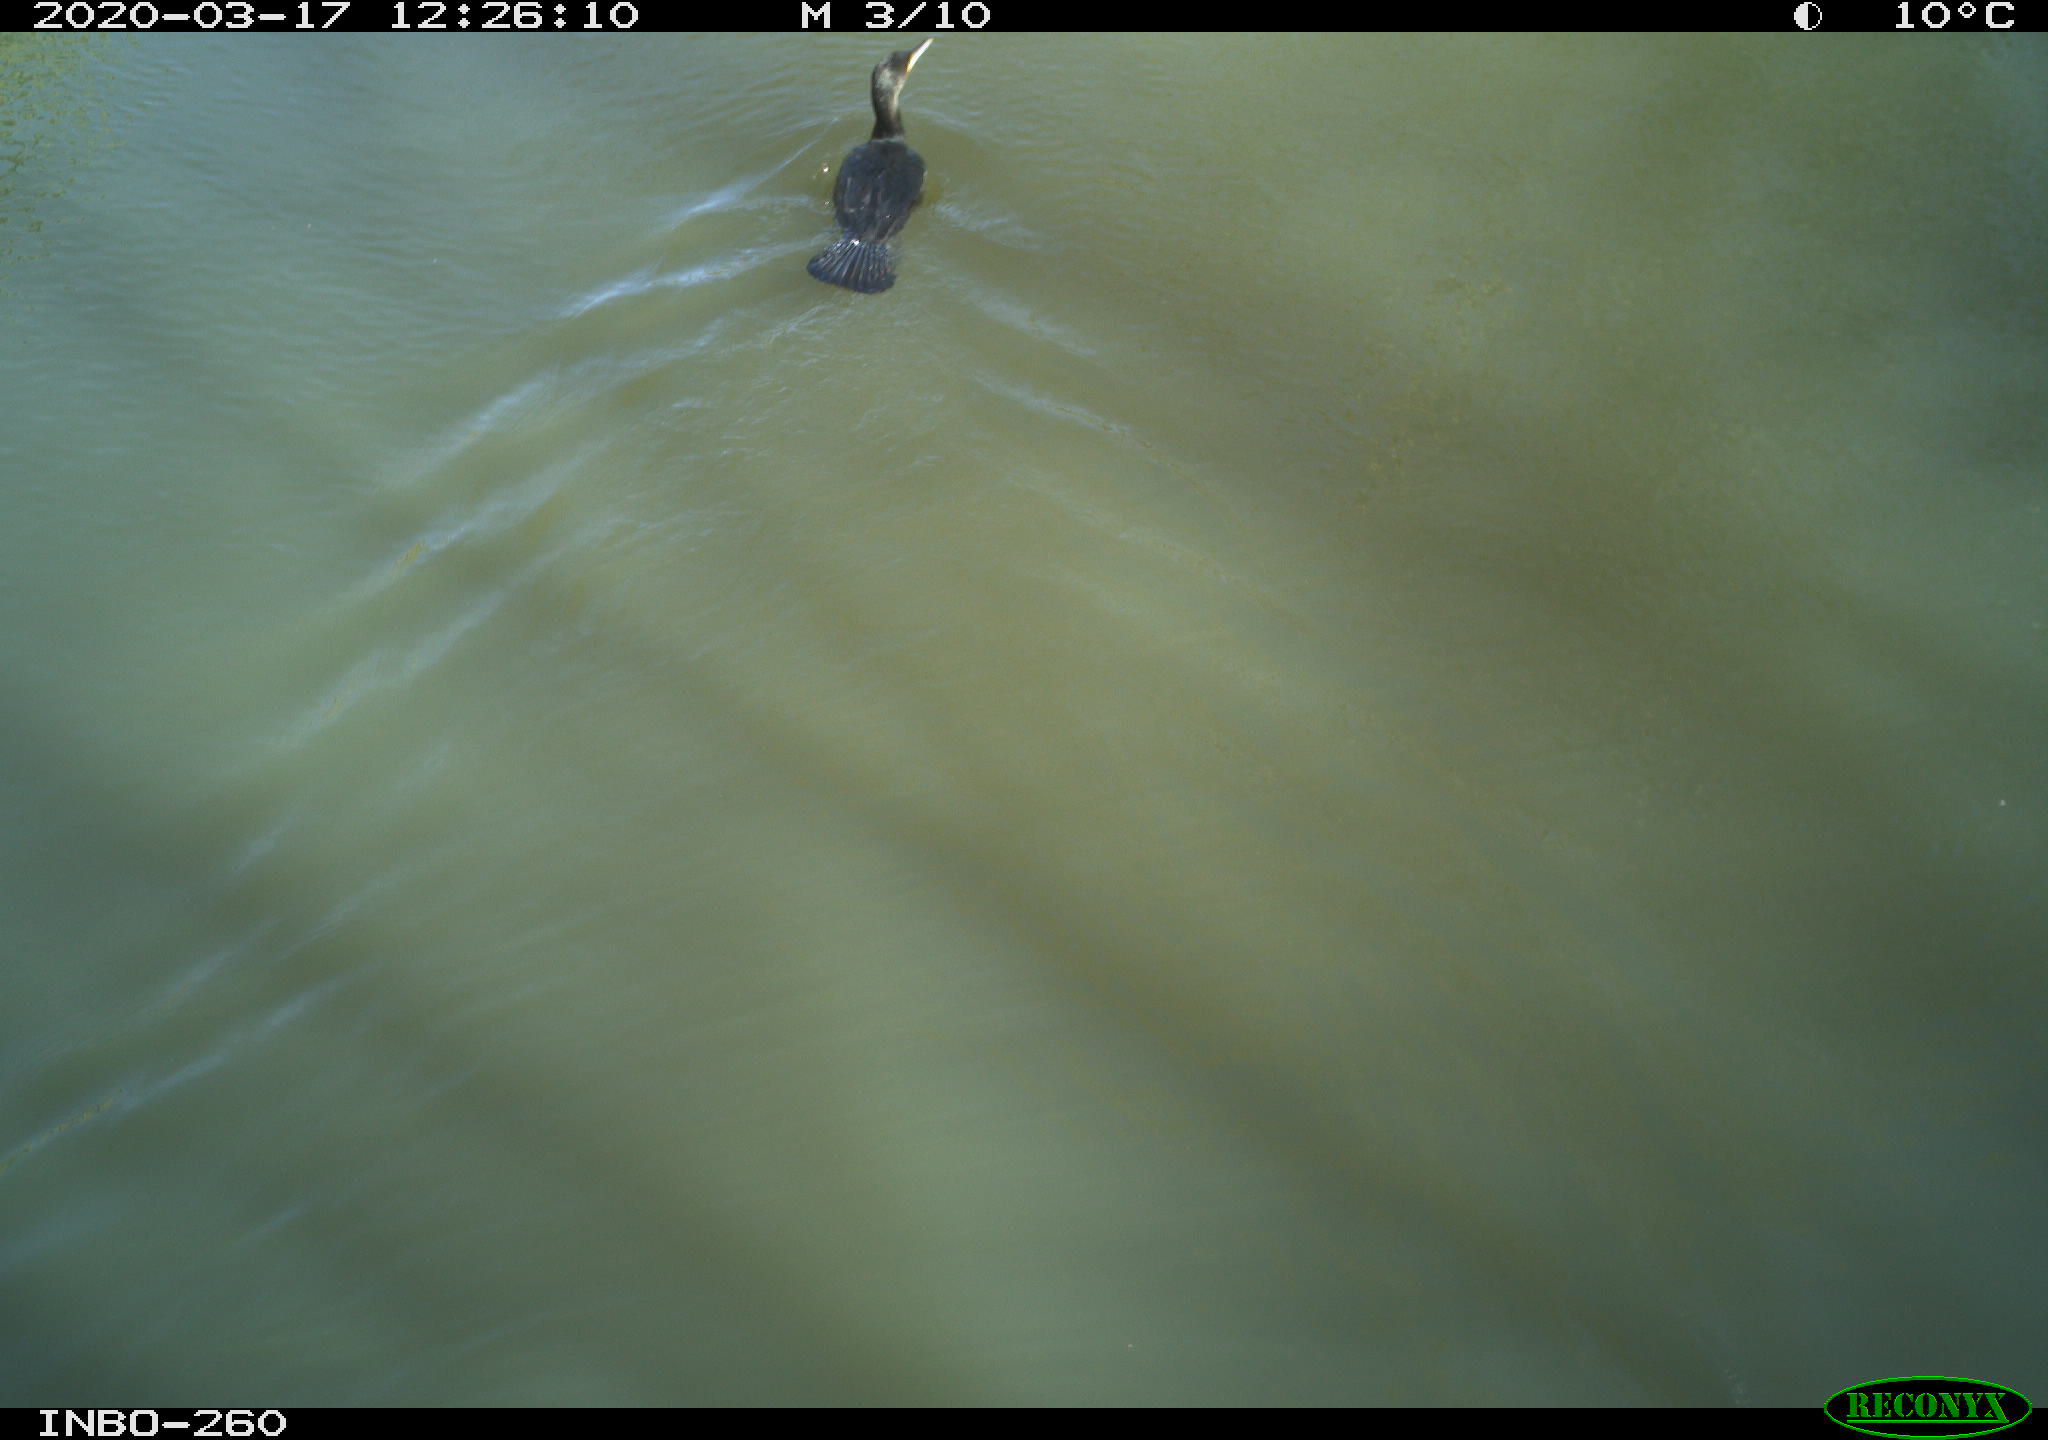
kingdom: Animalia
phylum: Chordata
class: Aves
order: Suliformes
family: Phalacrocoracidae
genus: Phalacrocorax
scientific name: Phalacrocorax carbo
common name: Great cormorant
